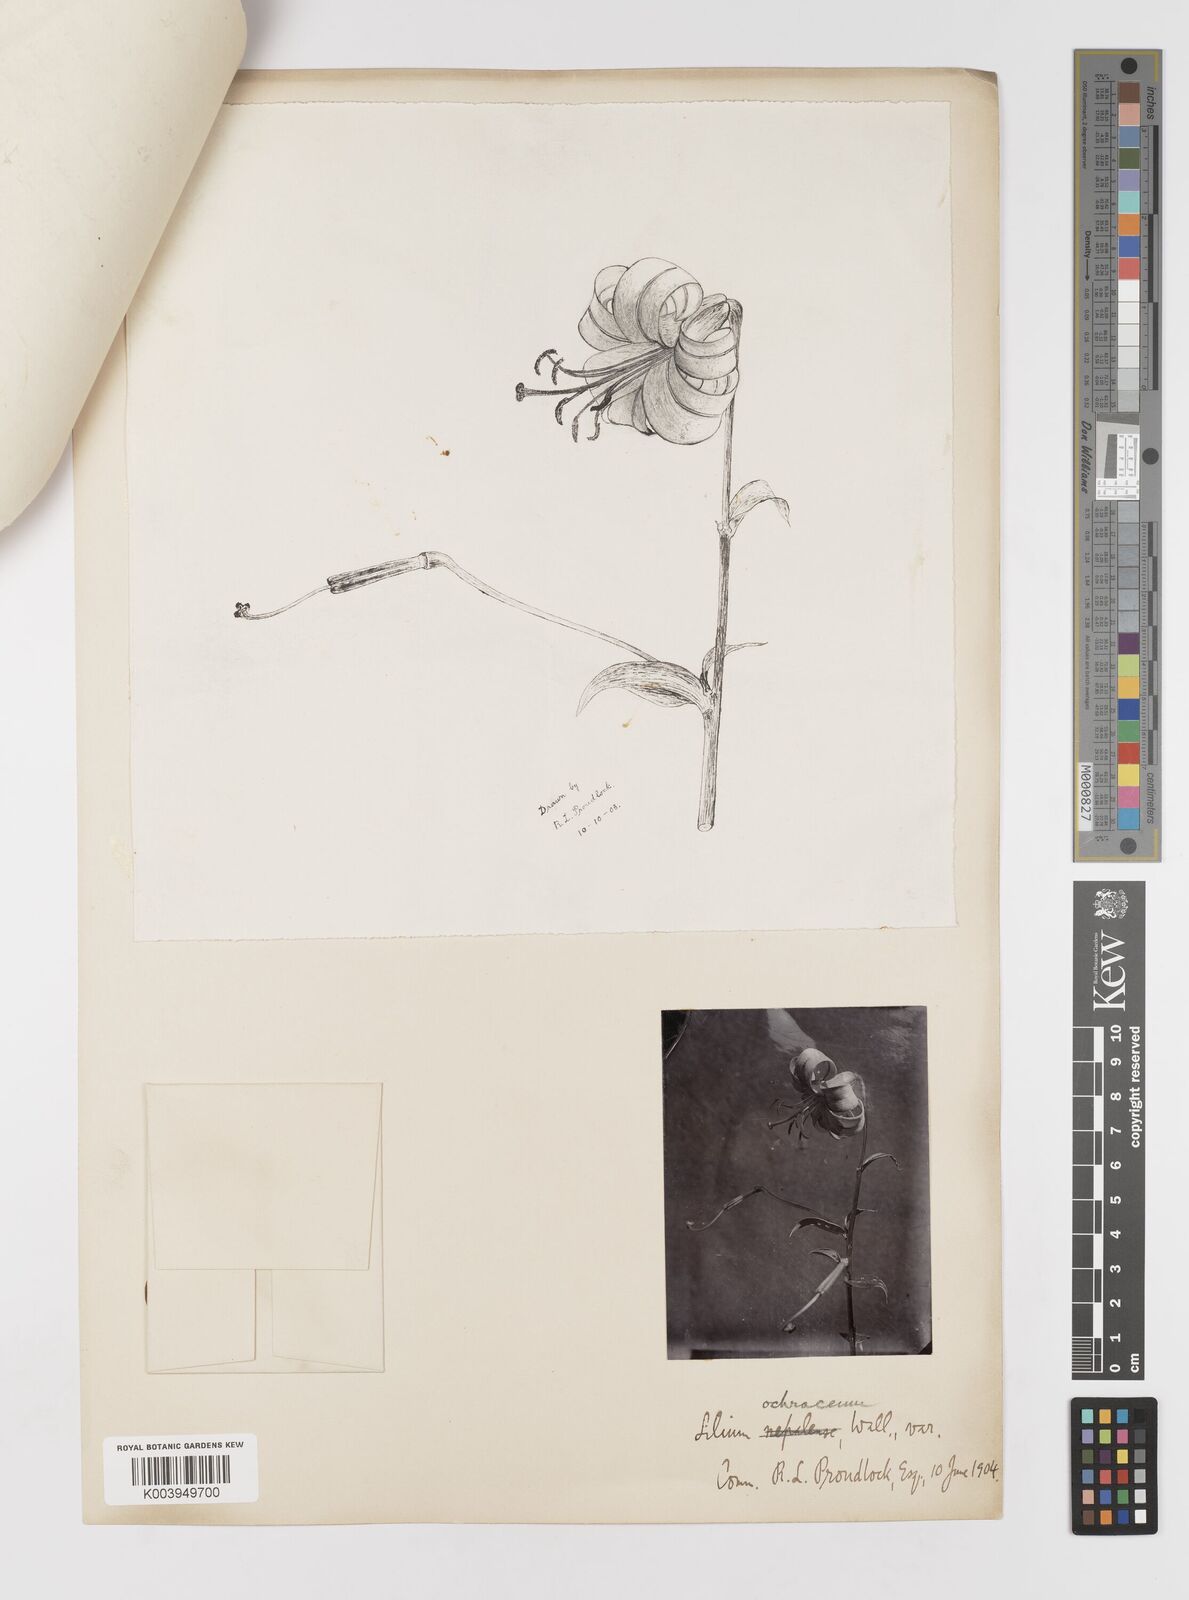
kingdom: Plantae
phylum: Tracheophyta
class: Liliopsida
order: Liliales
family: Liliaceae
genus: Lilium
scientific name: Lilium primulinum
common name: Ochre lily
